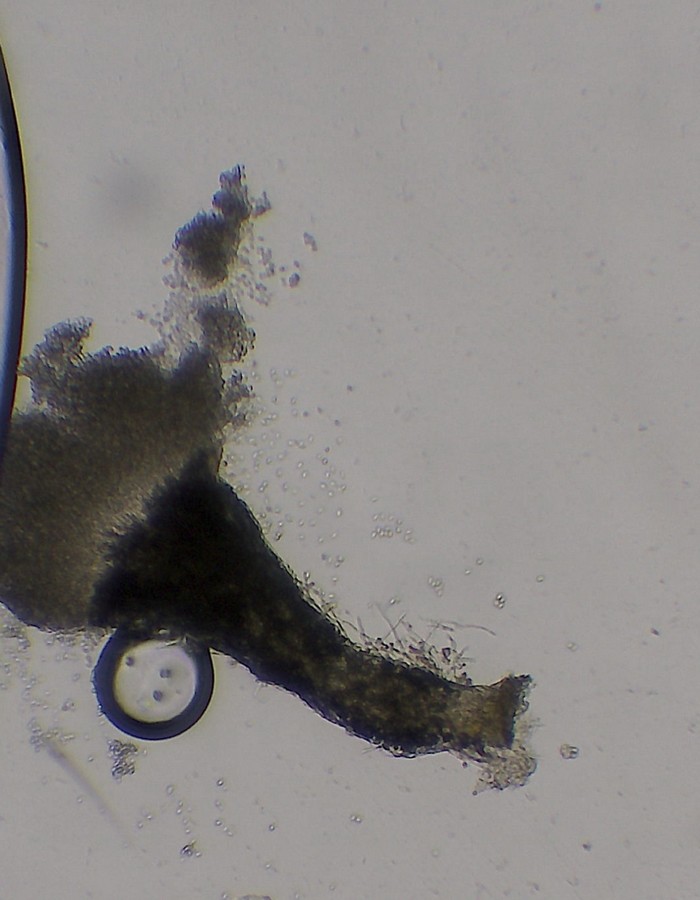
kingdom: Fungi
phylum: Ascomycota
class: Sordariomycetes
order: Hypocreales
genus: Stilbella
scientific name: Stilbella fimetaria
